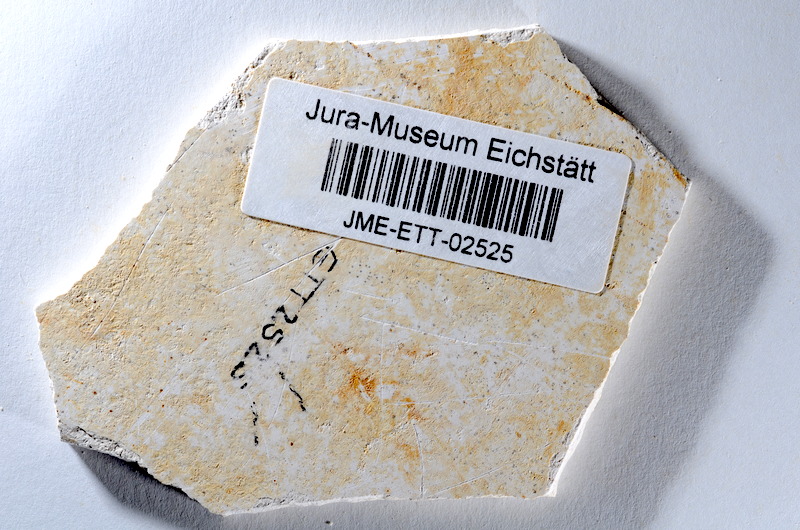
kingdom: Animalia
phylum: Chordata
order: Salmoniformes
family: Orthogonikleithridae
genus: Orthogonikleithrus
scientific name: Orthogonikleithrus hoelli
